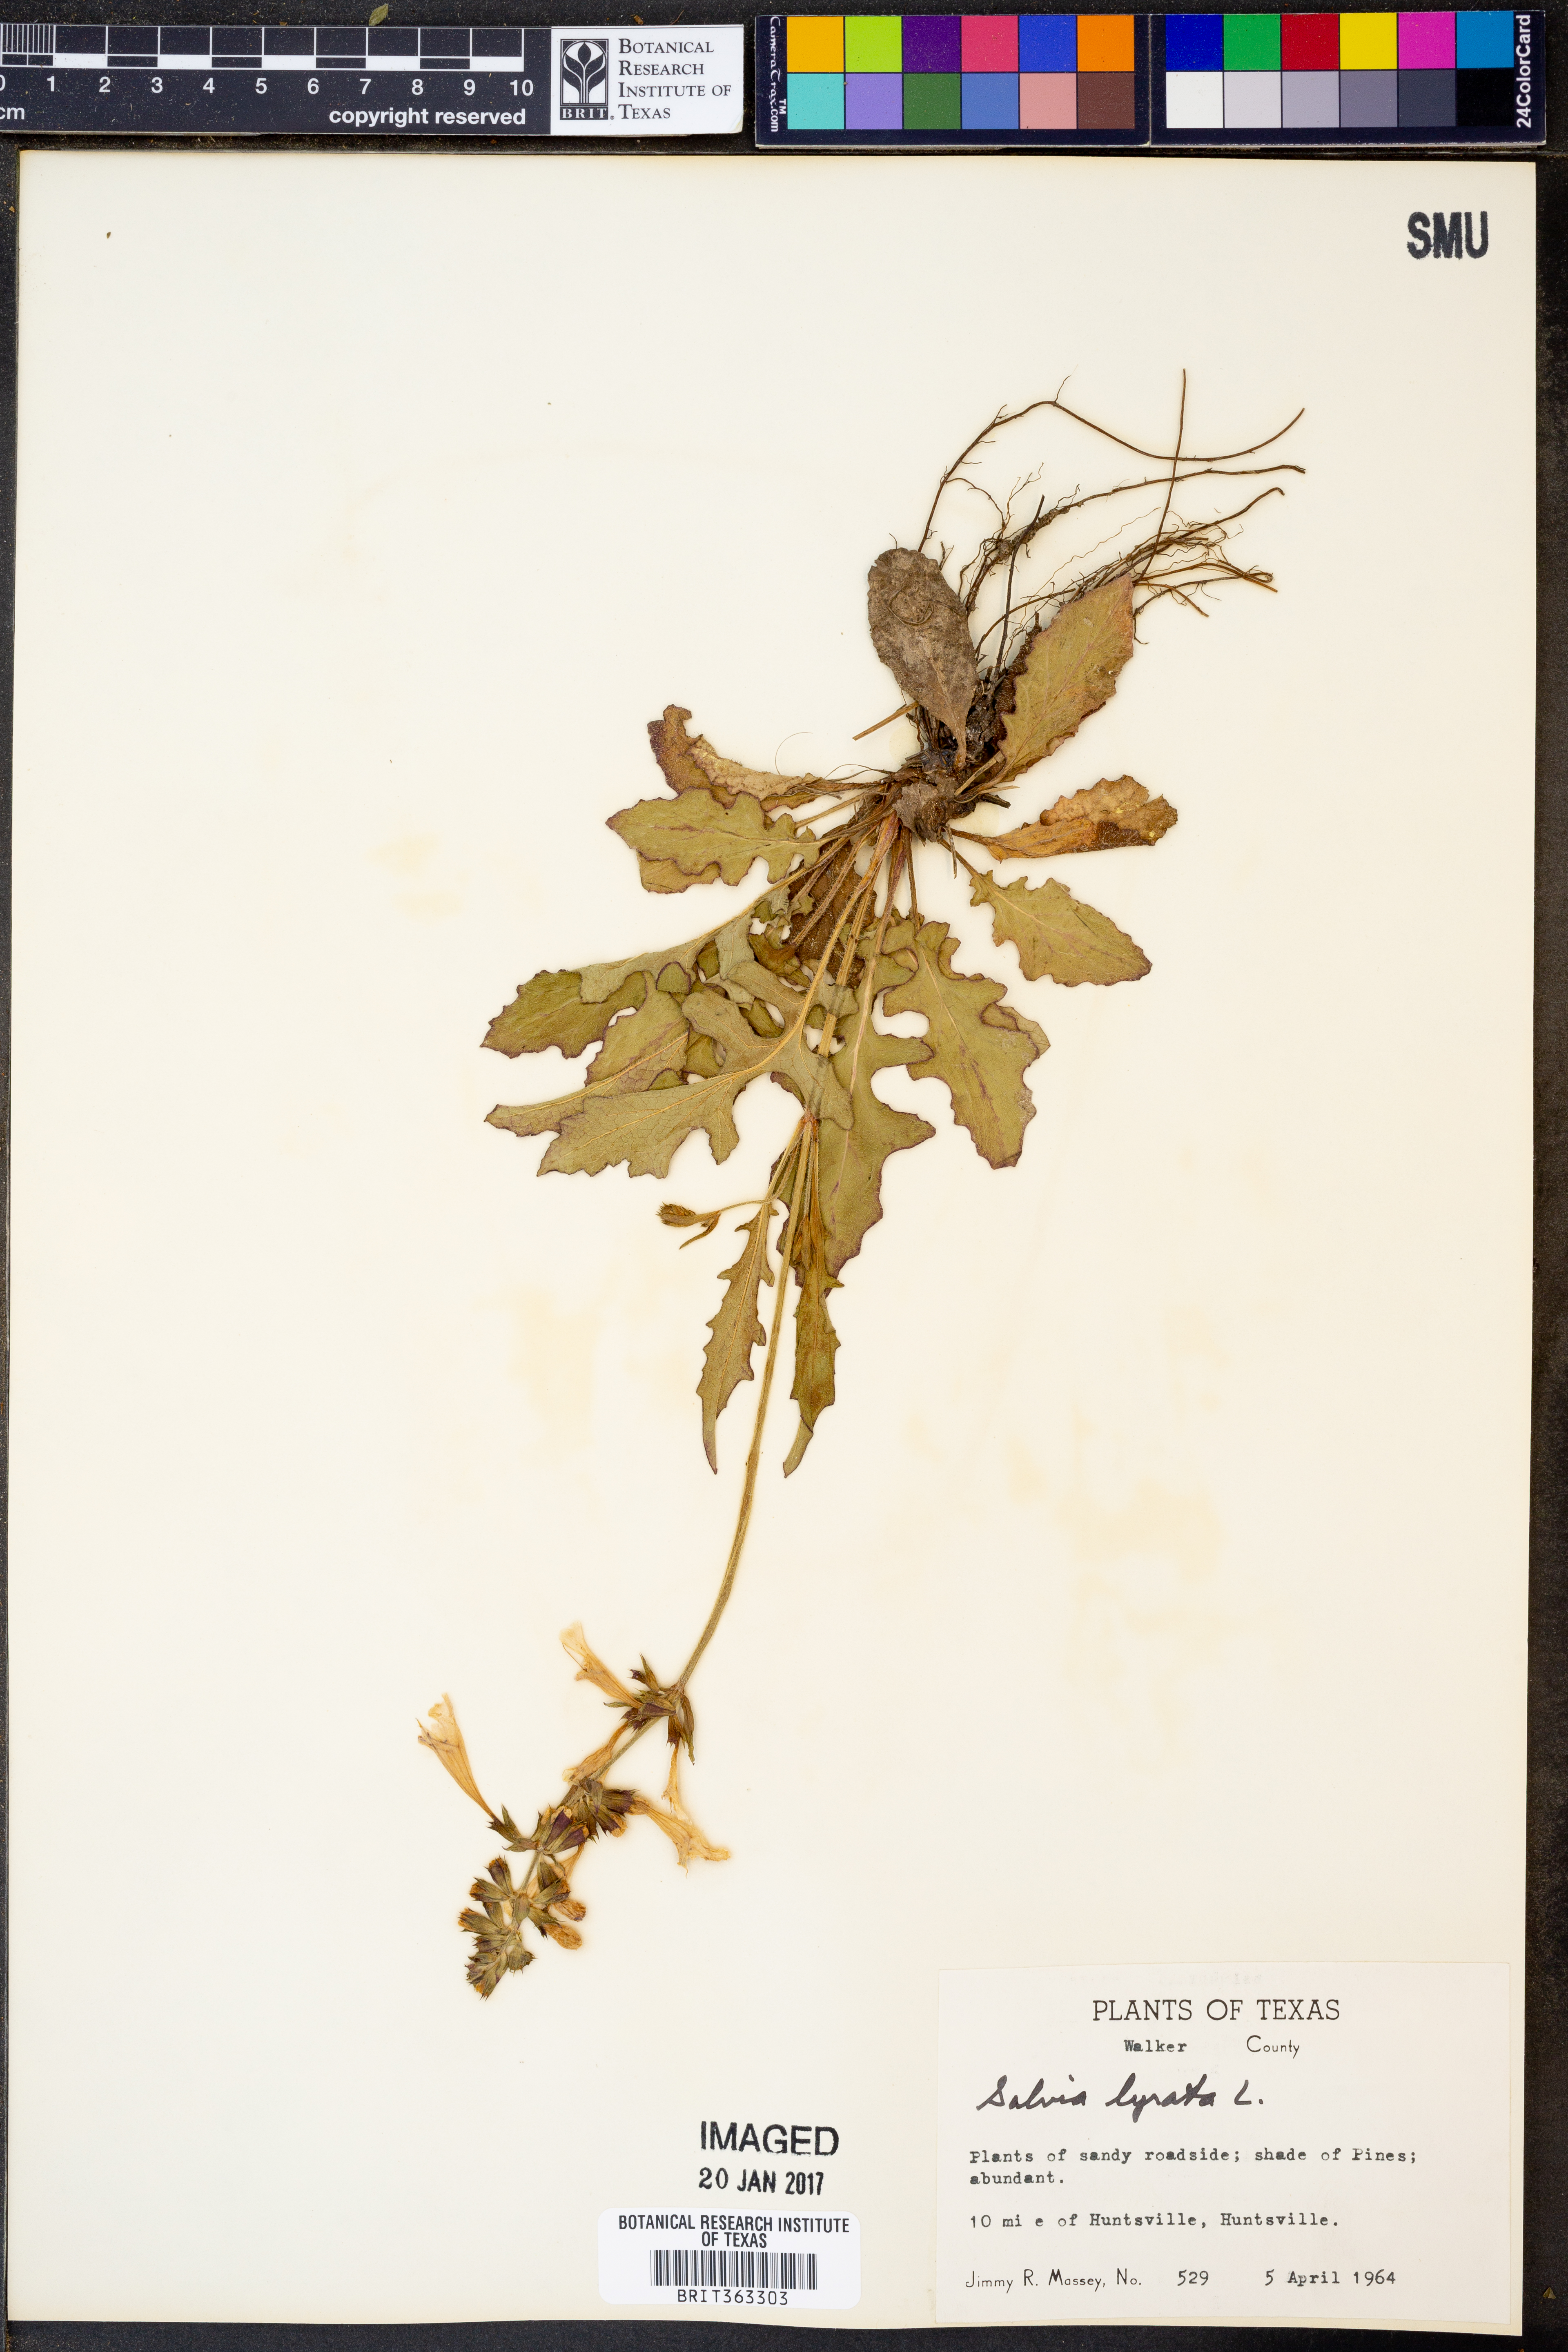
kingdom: Plantae
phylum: Tracheophyta
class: Magnoliopsida
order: Lamiales
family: Lamiaceae
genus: Salvia
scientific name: Salvia lyrata
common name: Cancerweed
